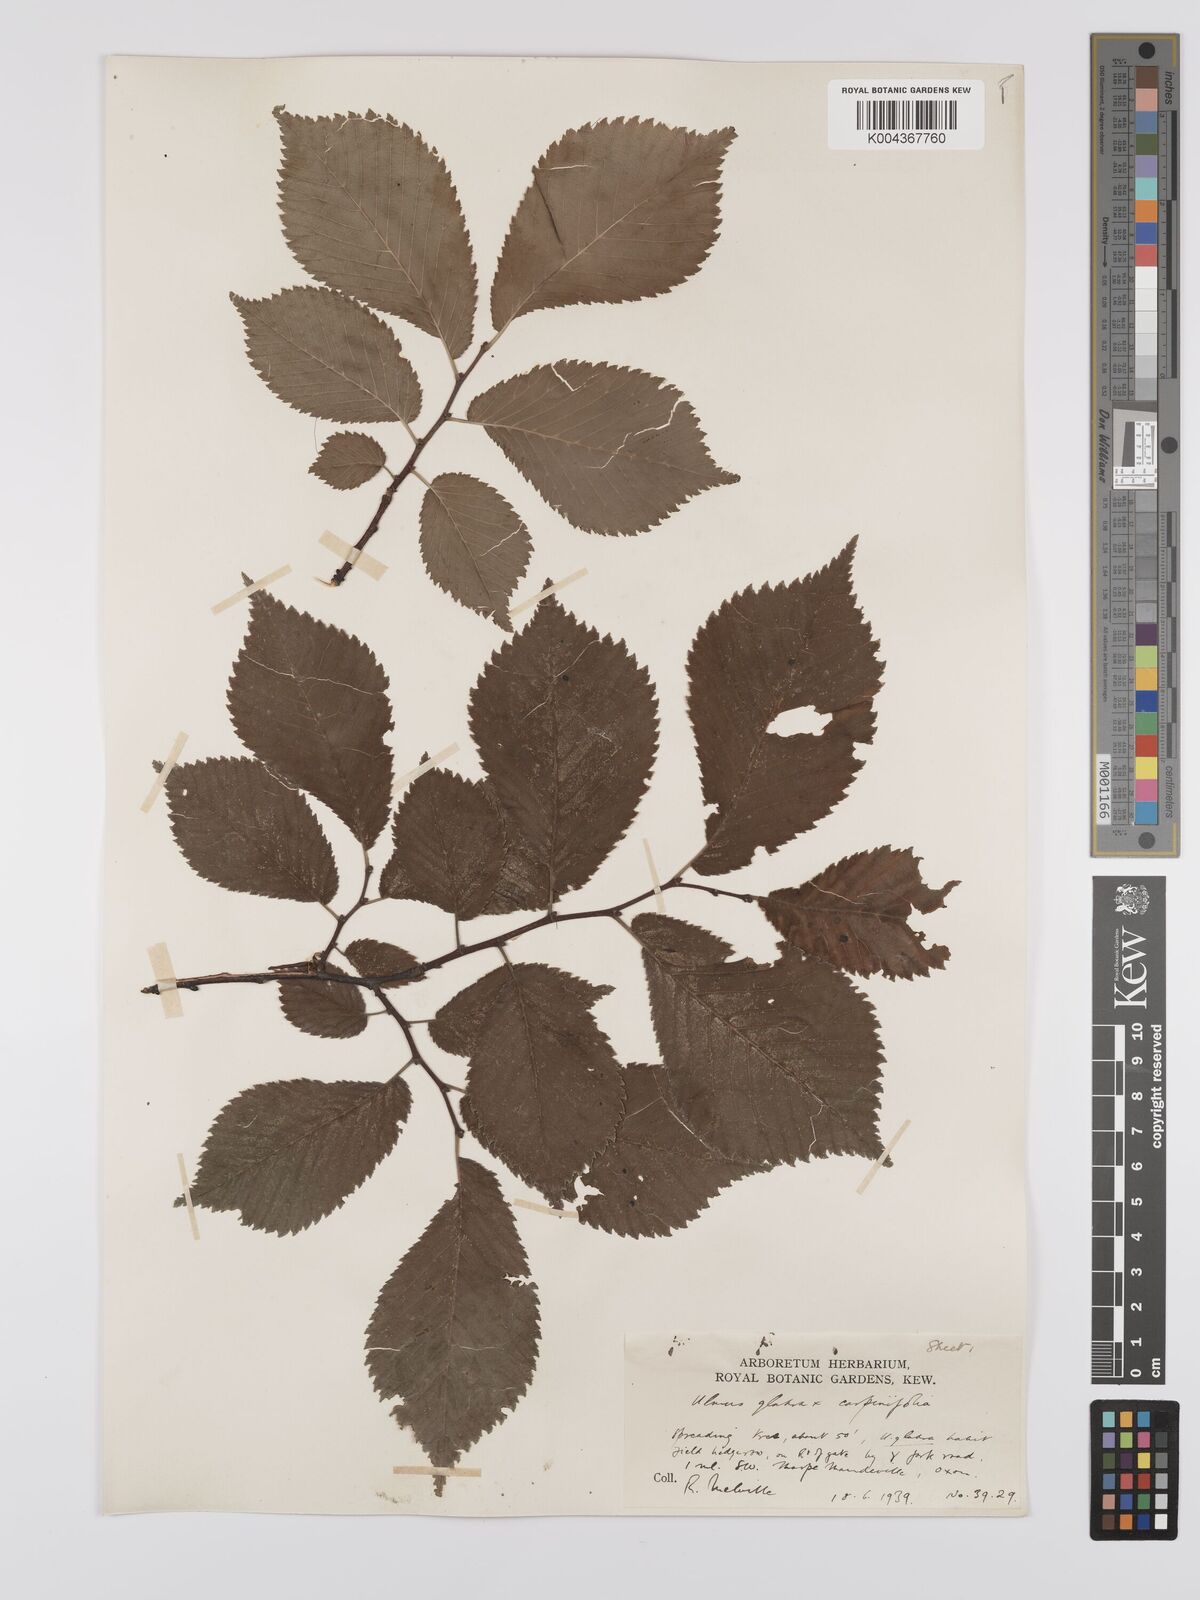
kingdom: Plantae
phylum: Tracheophyta
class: Magnoliopsida
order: Rosales
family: Ulmaceae
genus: Ulmus
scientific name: Ulmus
